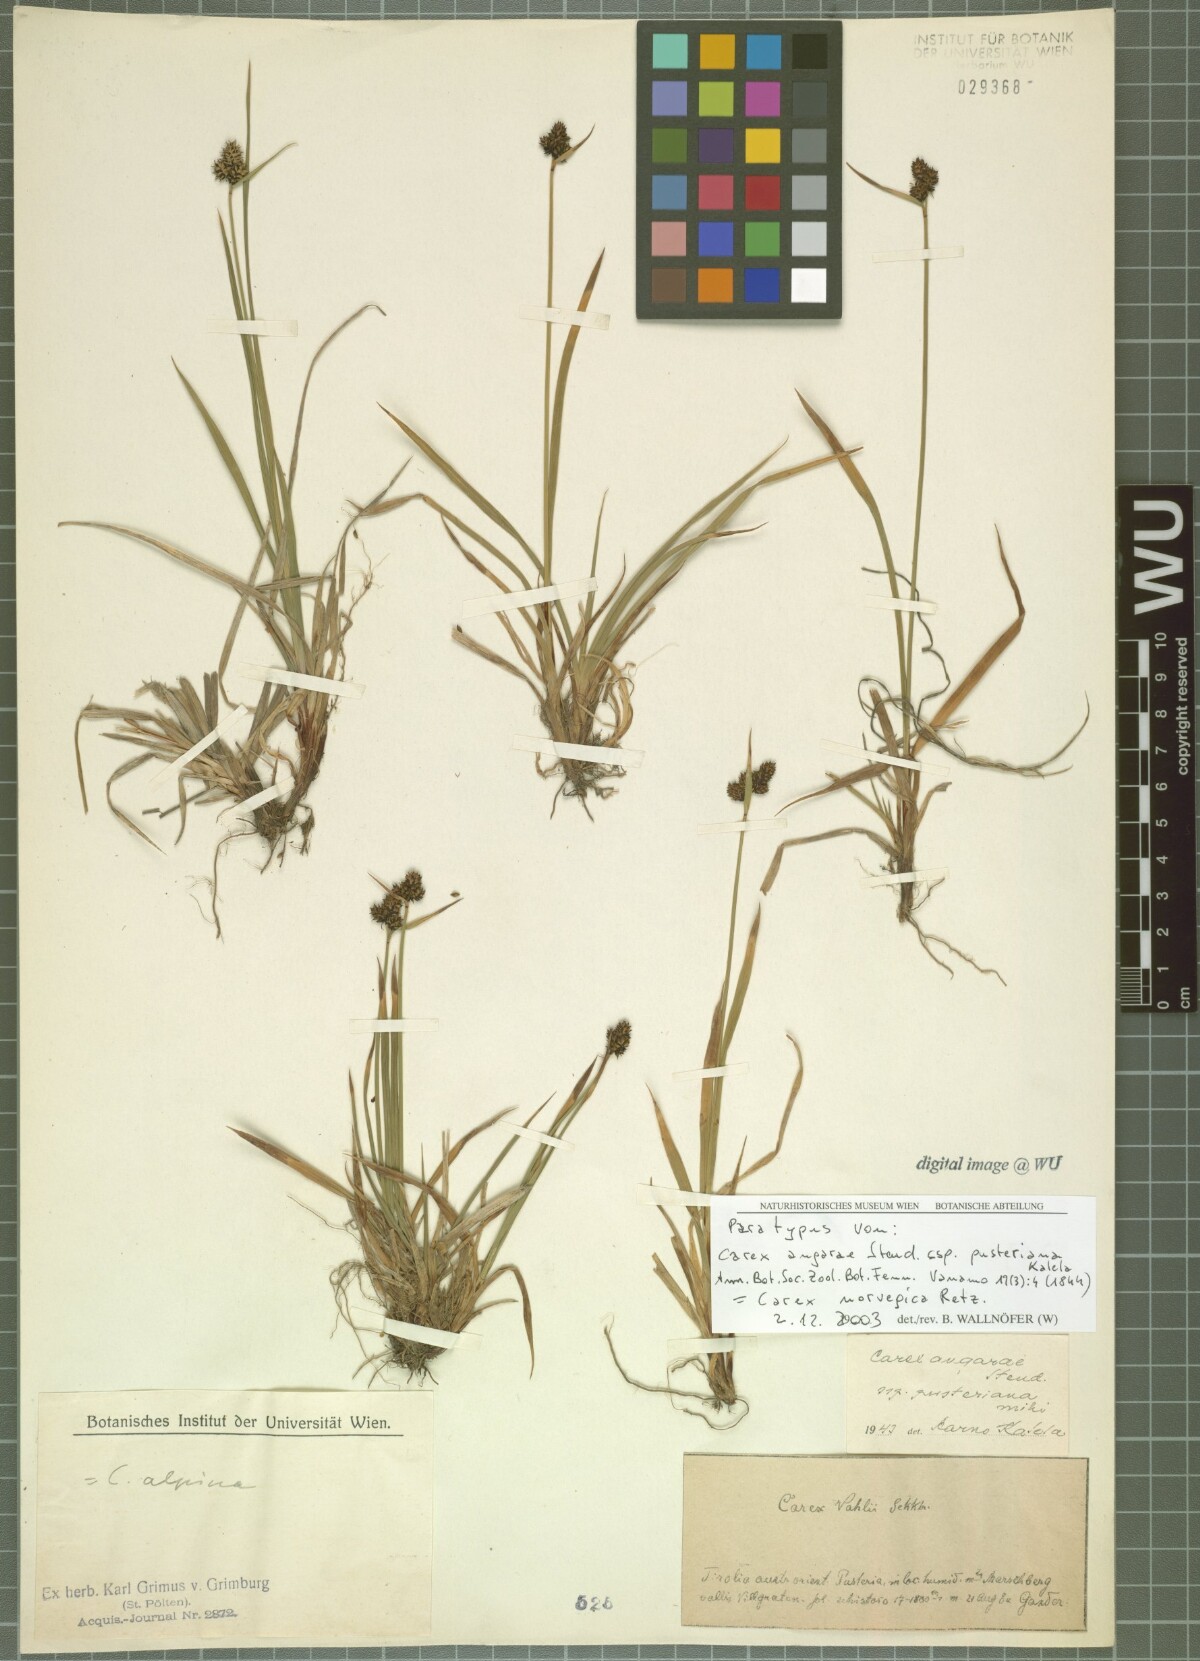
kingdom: Plantae
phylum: Tracheophyta
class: Liliopsida
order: Poales
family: Cyperaceae
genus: Carex
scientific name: Carex norvegica
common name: Close-headed alpine-sedge
